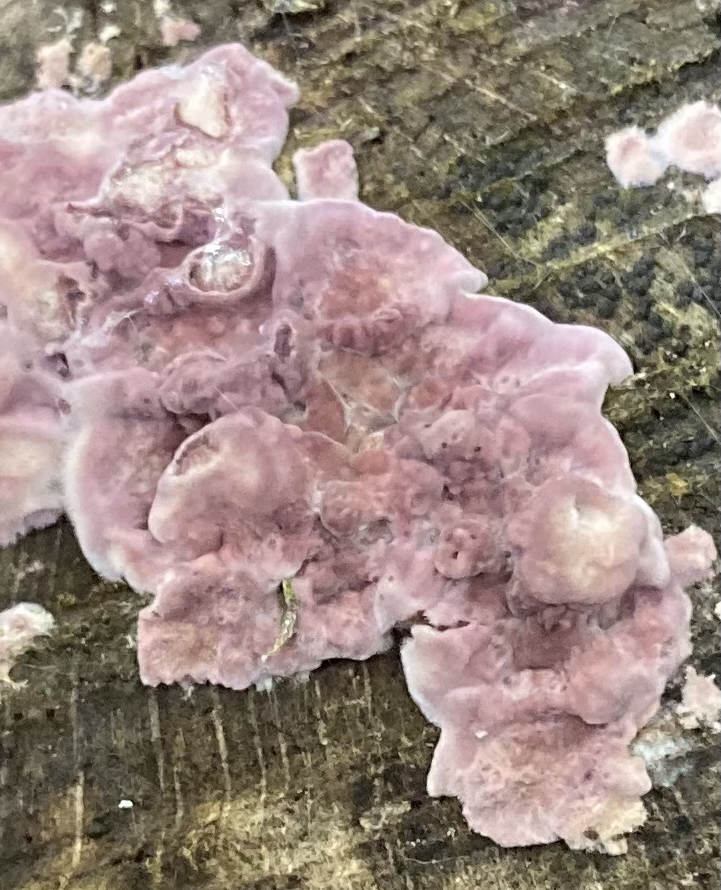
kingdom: Fungi
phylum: Basidiomycota
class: Agaricomycetes
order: Agaricales
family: Cyphellaceae
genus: Chondrostereum
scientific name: Chondrostereum purpureum
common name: purpurlædersvamp
